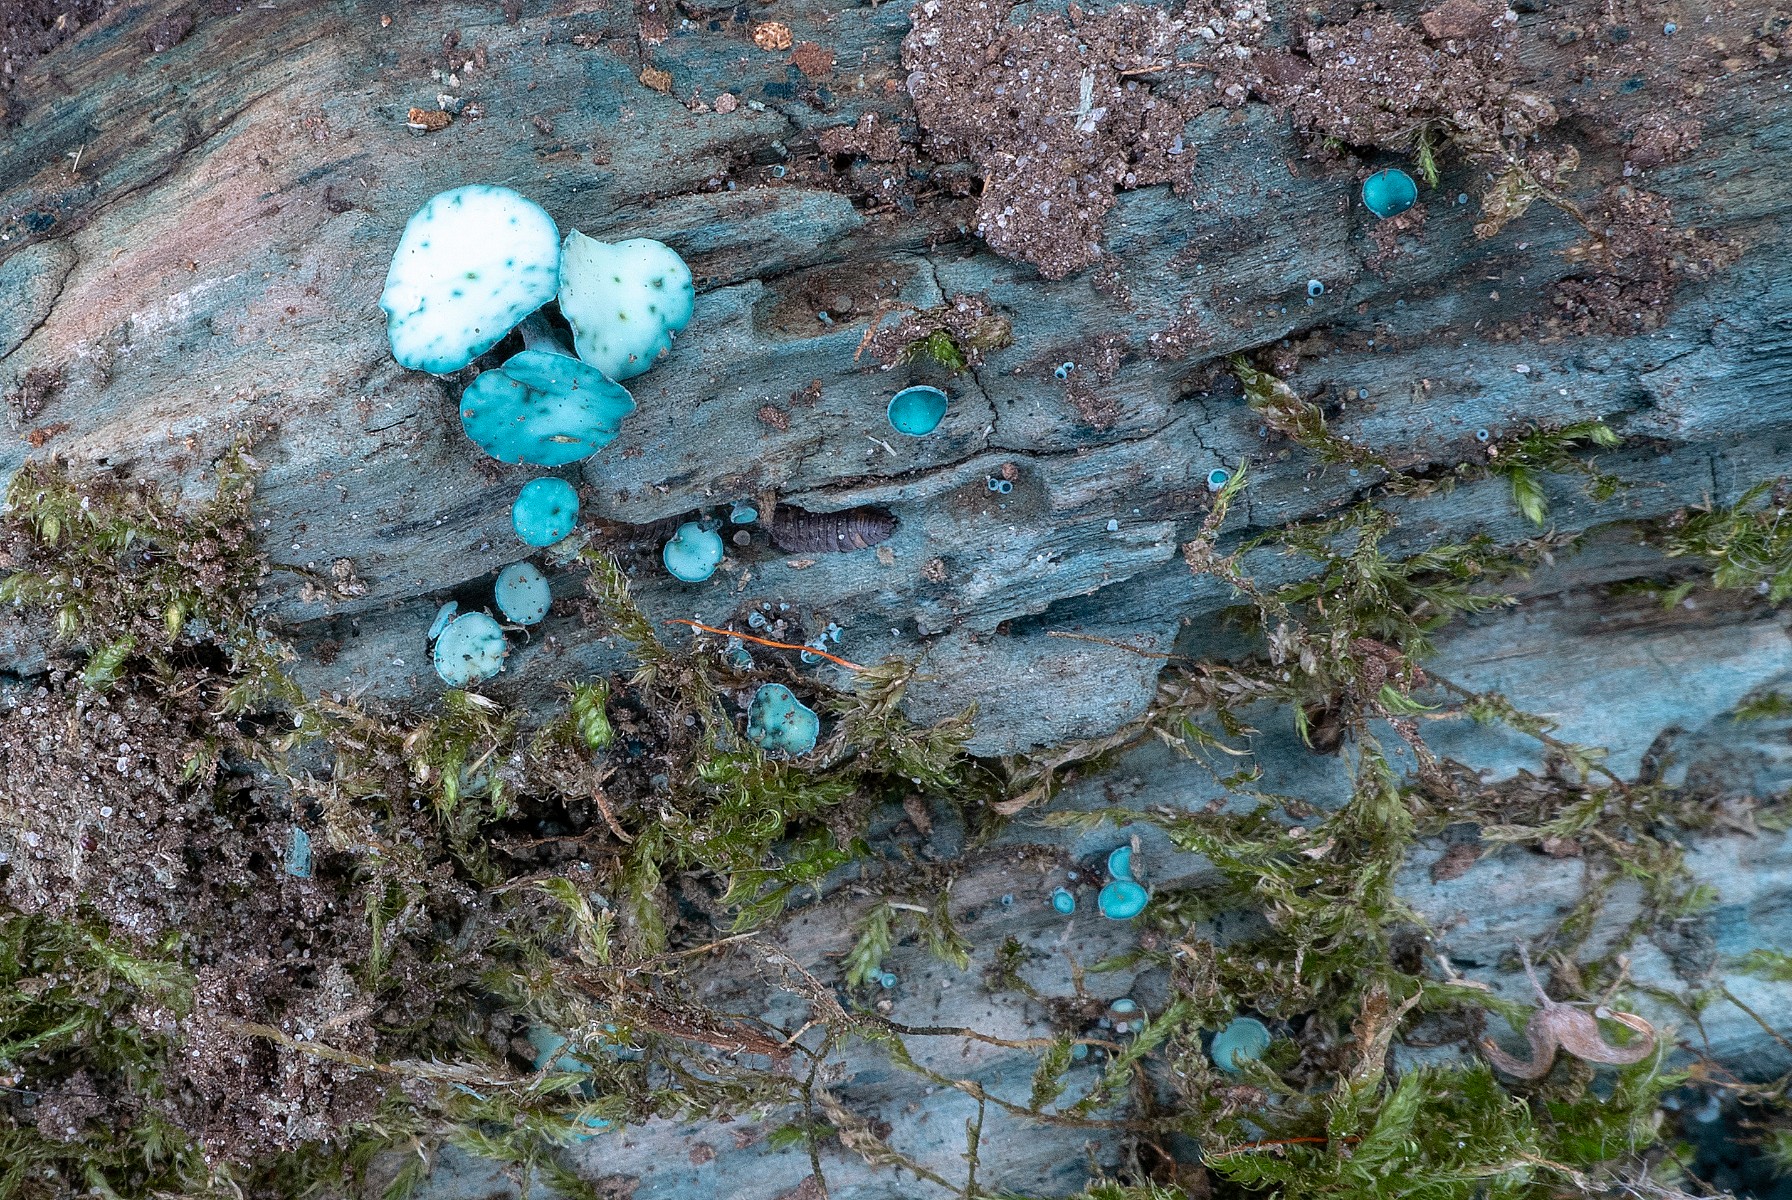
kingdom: Fungi
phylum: Ascomycota
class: Leotiomycetes
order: Helotiales
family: Chlorociboriaceae
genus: Chlorociboria
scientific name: Chlorociboria aeruginascens
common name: almindelig grønskive
